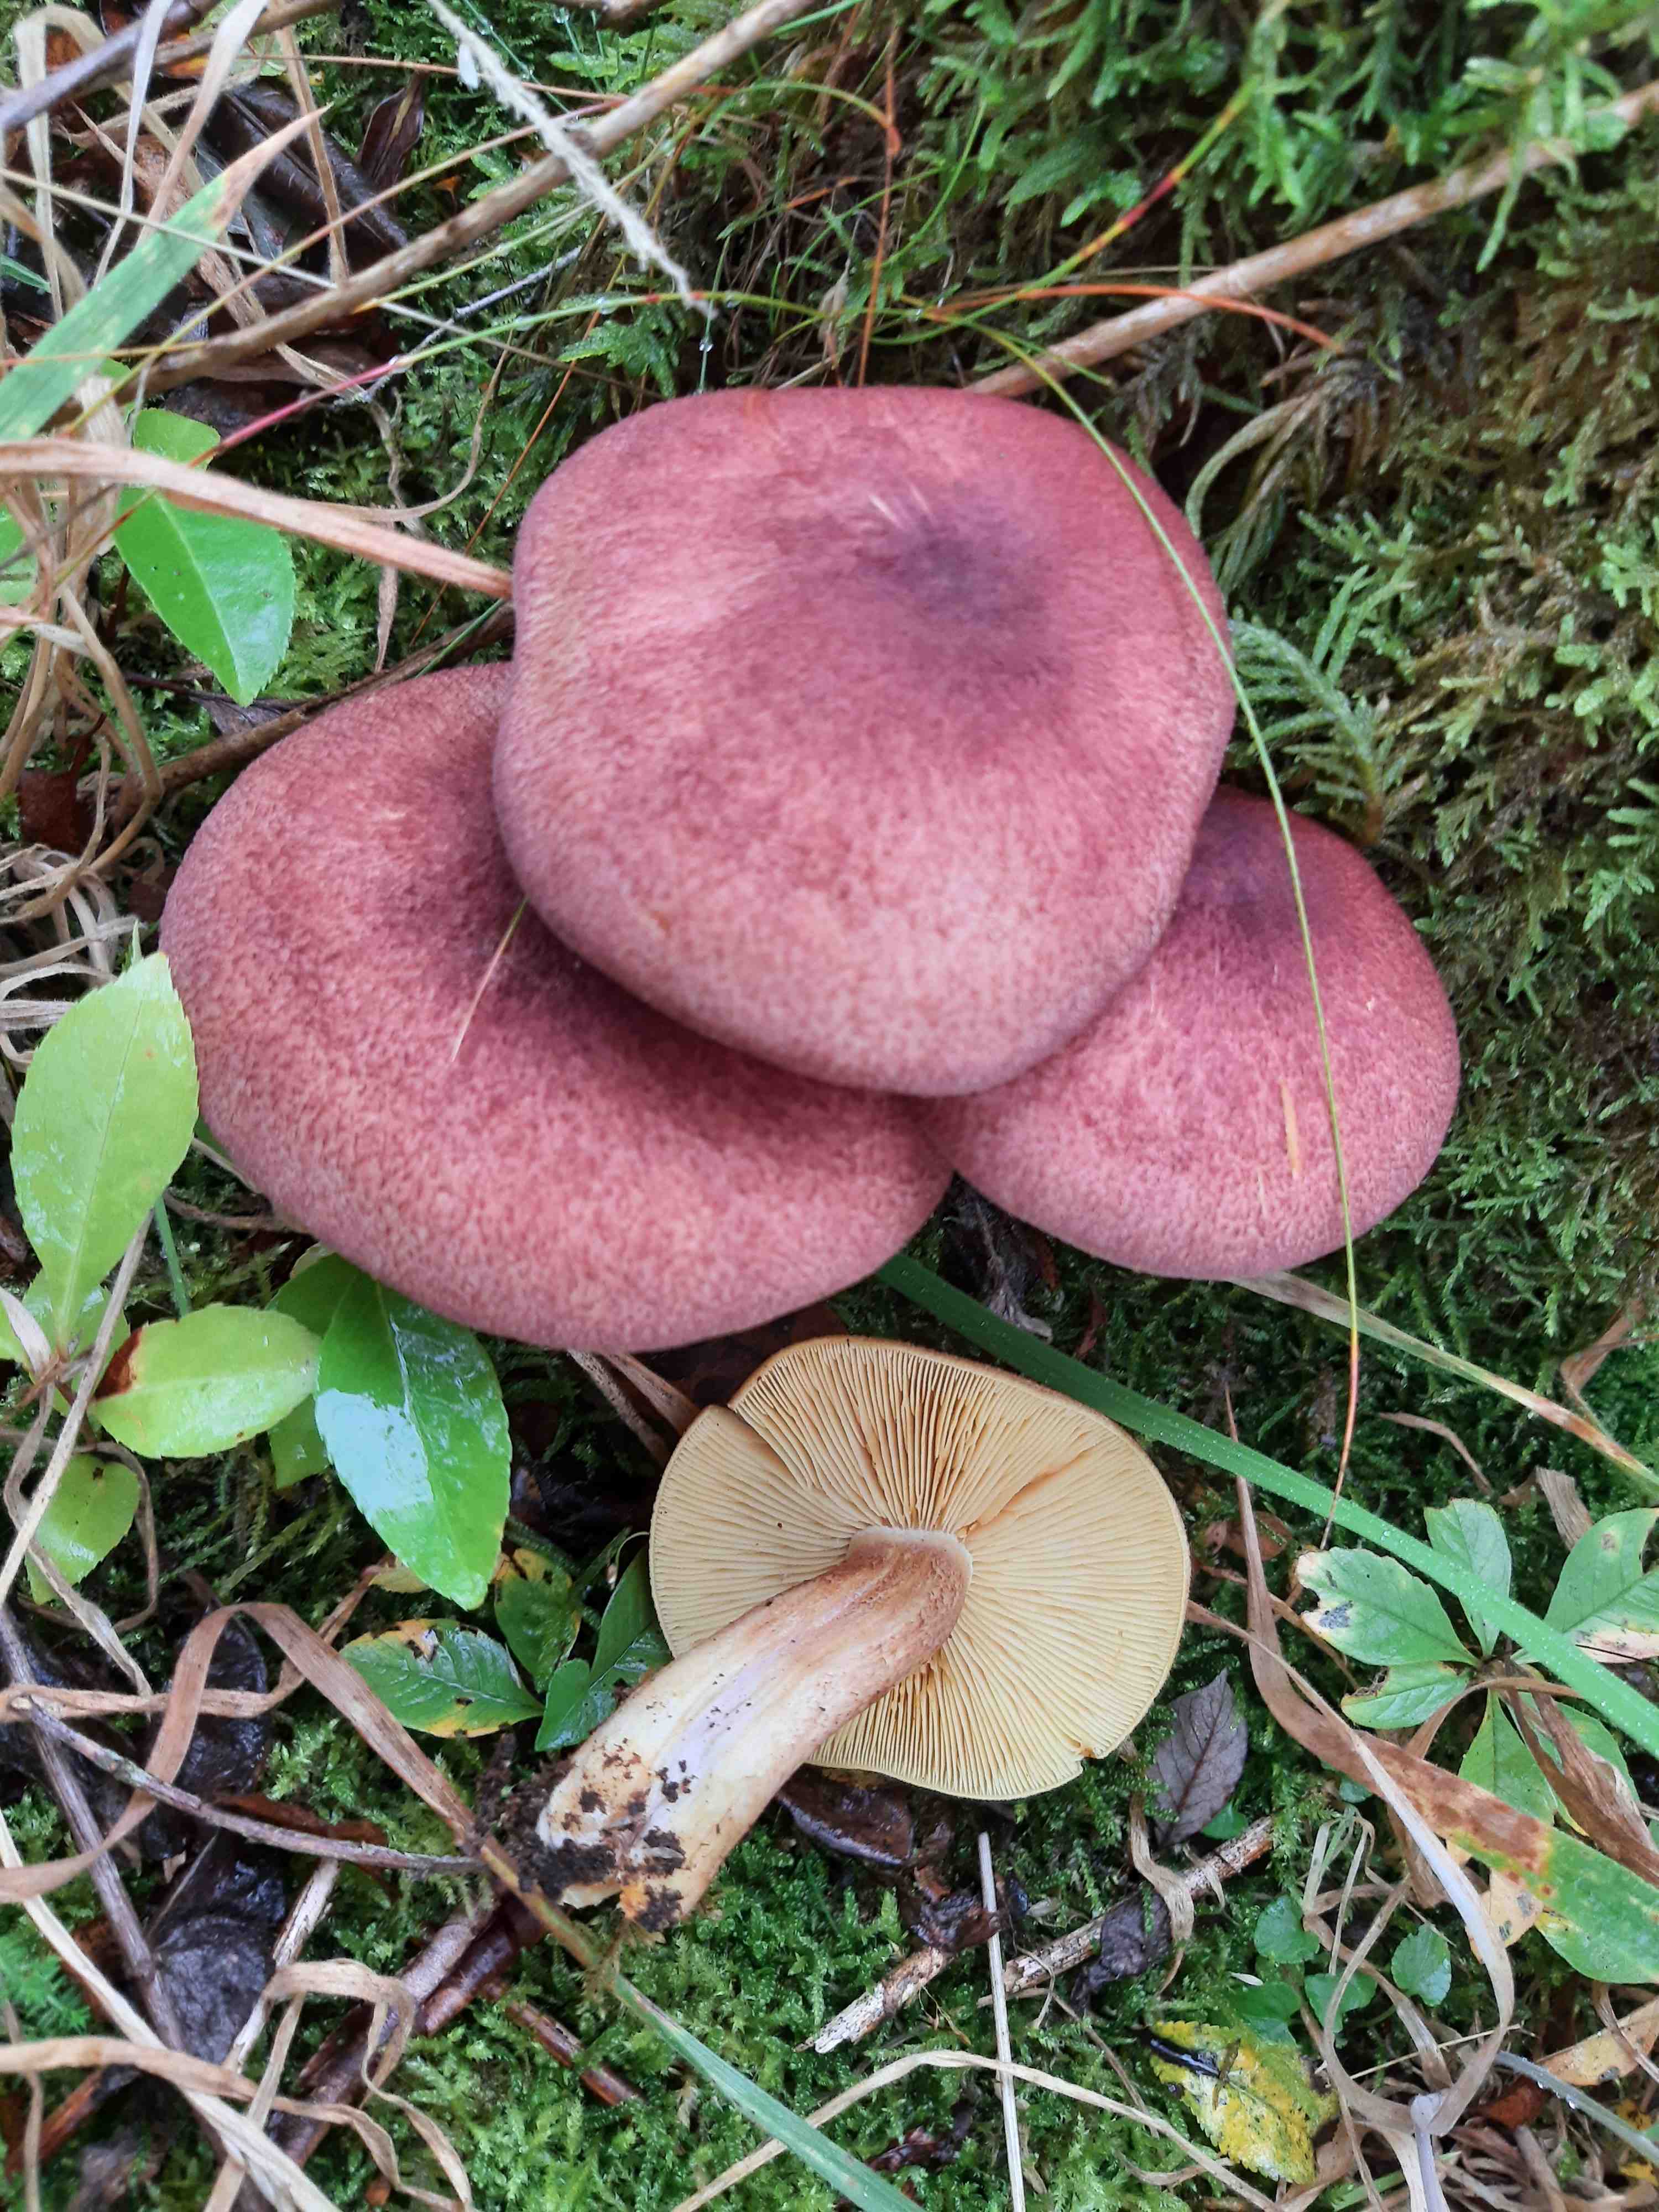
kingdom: Fungi
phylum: Basidiomycota
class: Agaricomycetes
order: Agaricales
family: Tricholomataceae
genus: Tricholomopsis
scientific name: Tricholomopsis rutilans
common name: purpur-væbnerhat
